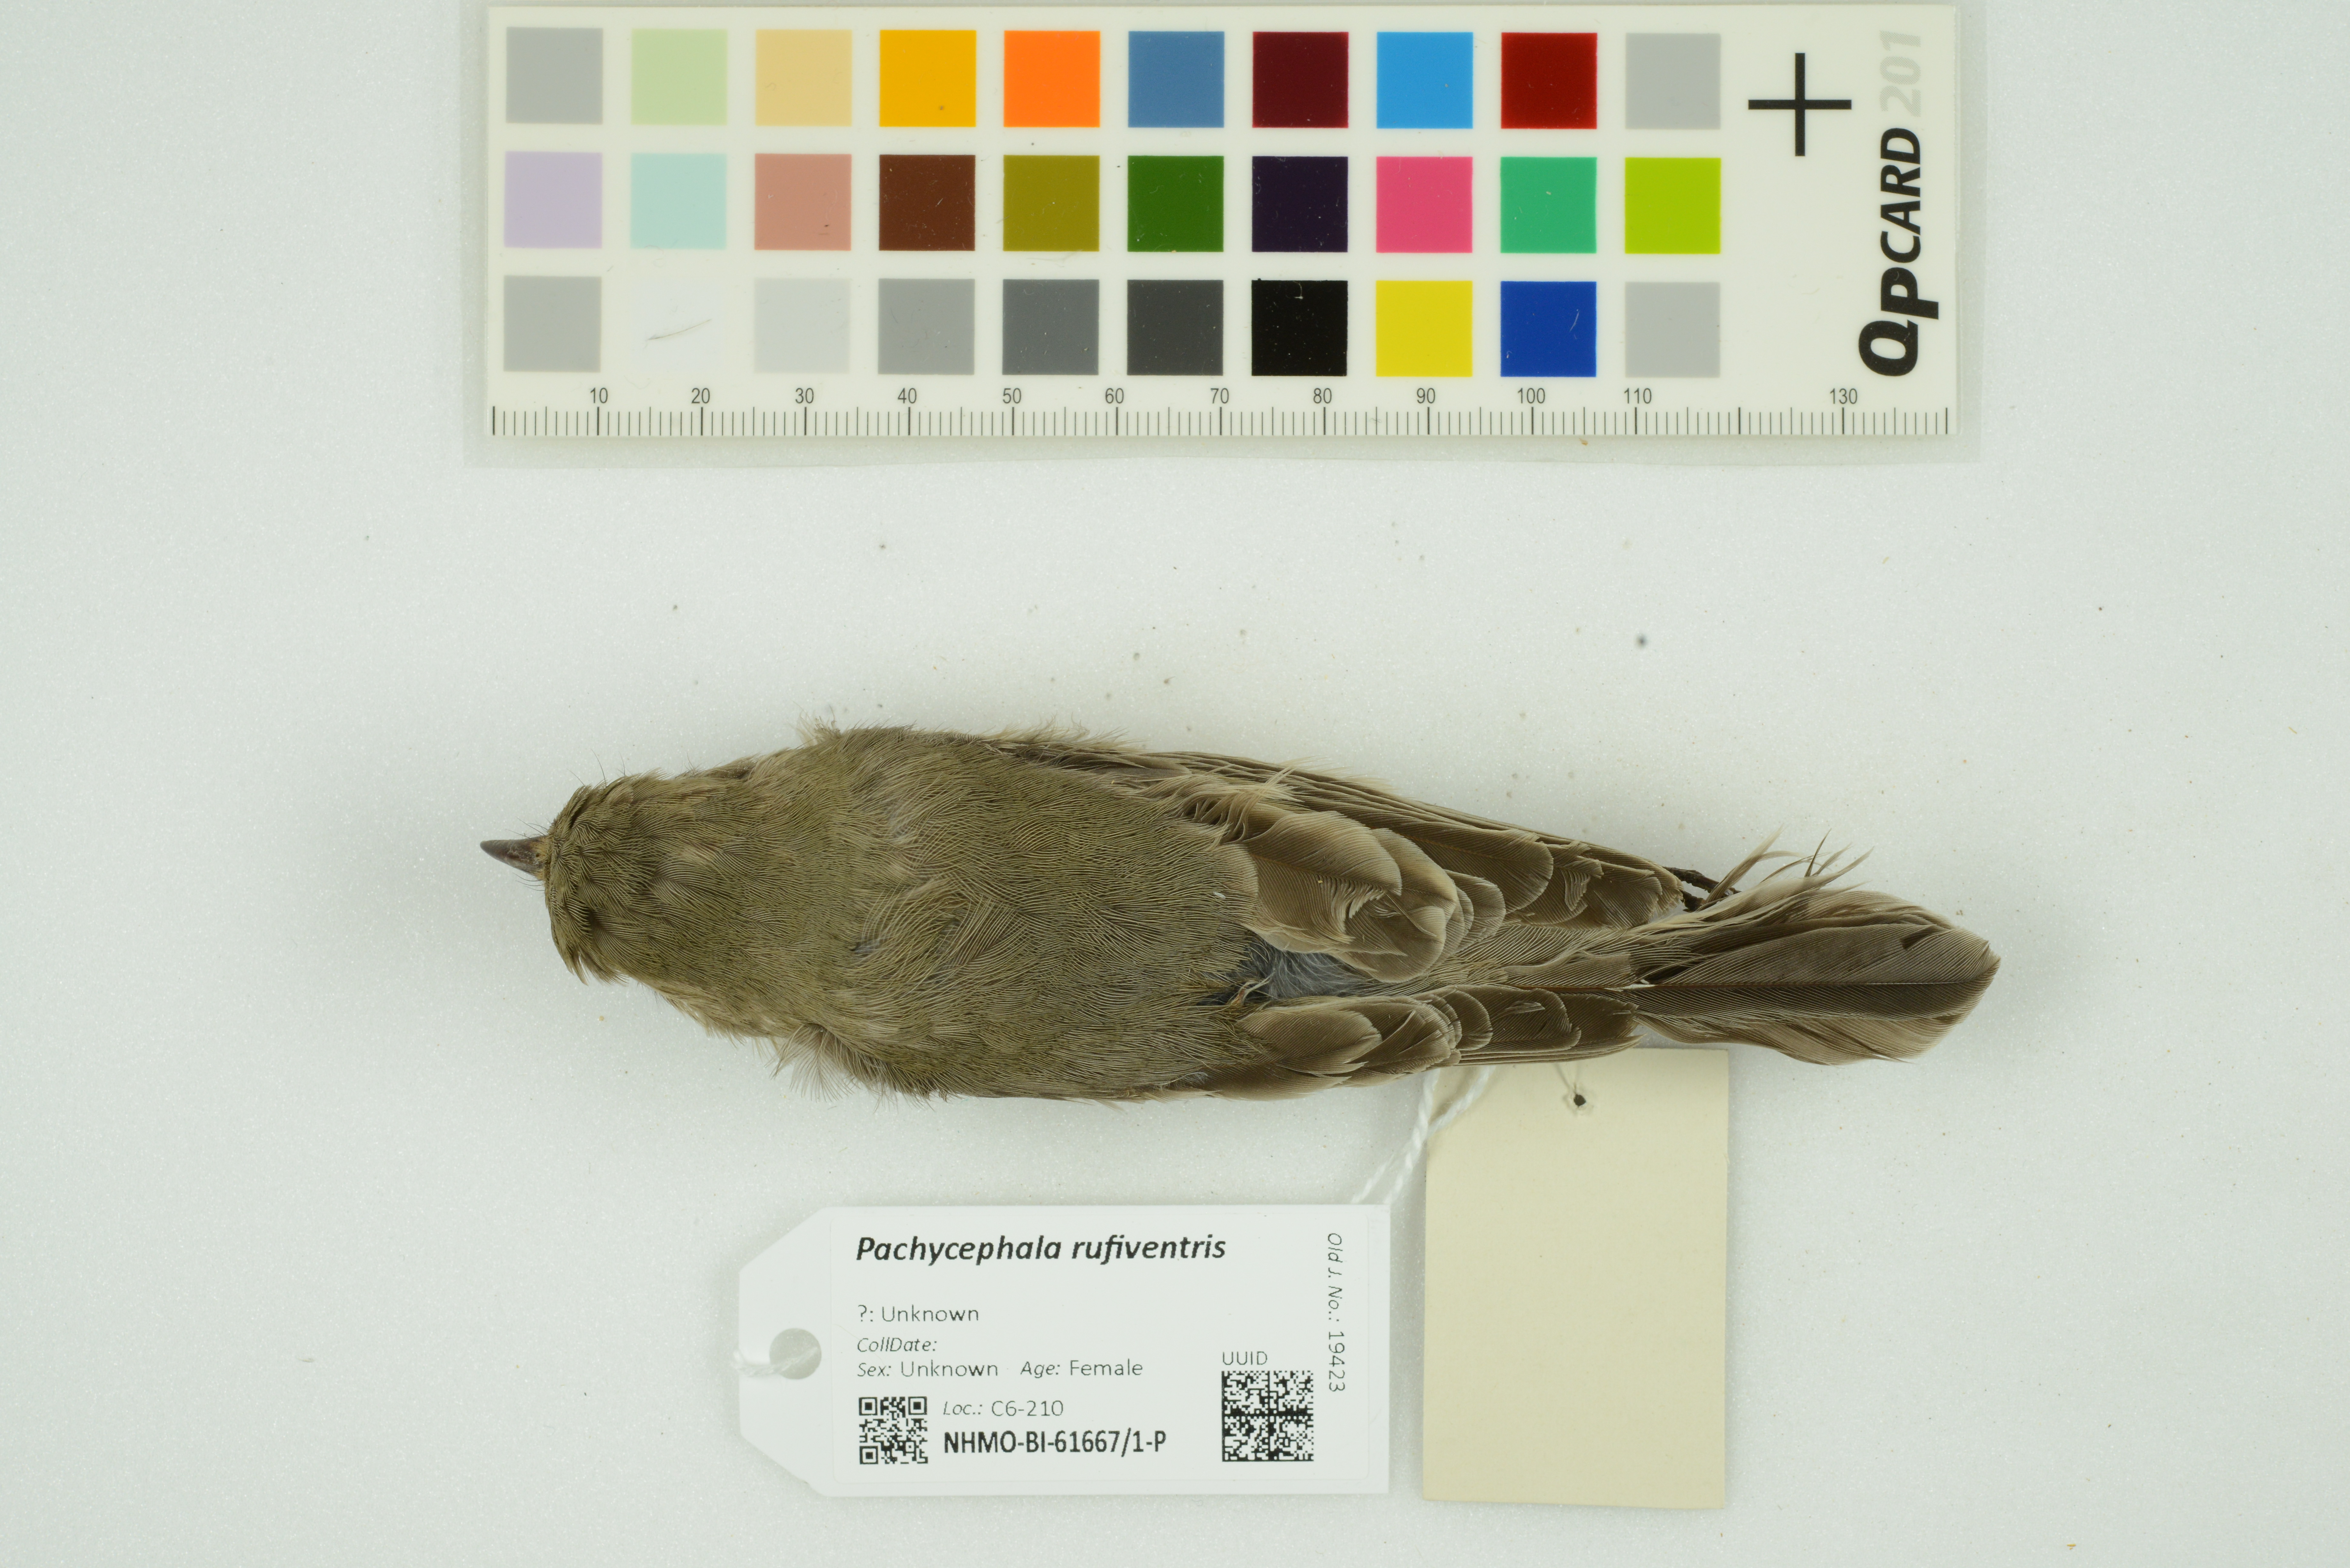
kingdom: Animalia
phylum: Chordata
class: Aves
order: Passeriformes
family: Pachycephalidae
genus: Pachycephala
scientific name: Pachycephala rufiventris
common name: Rufous whistler
